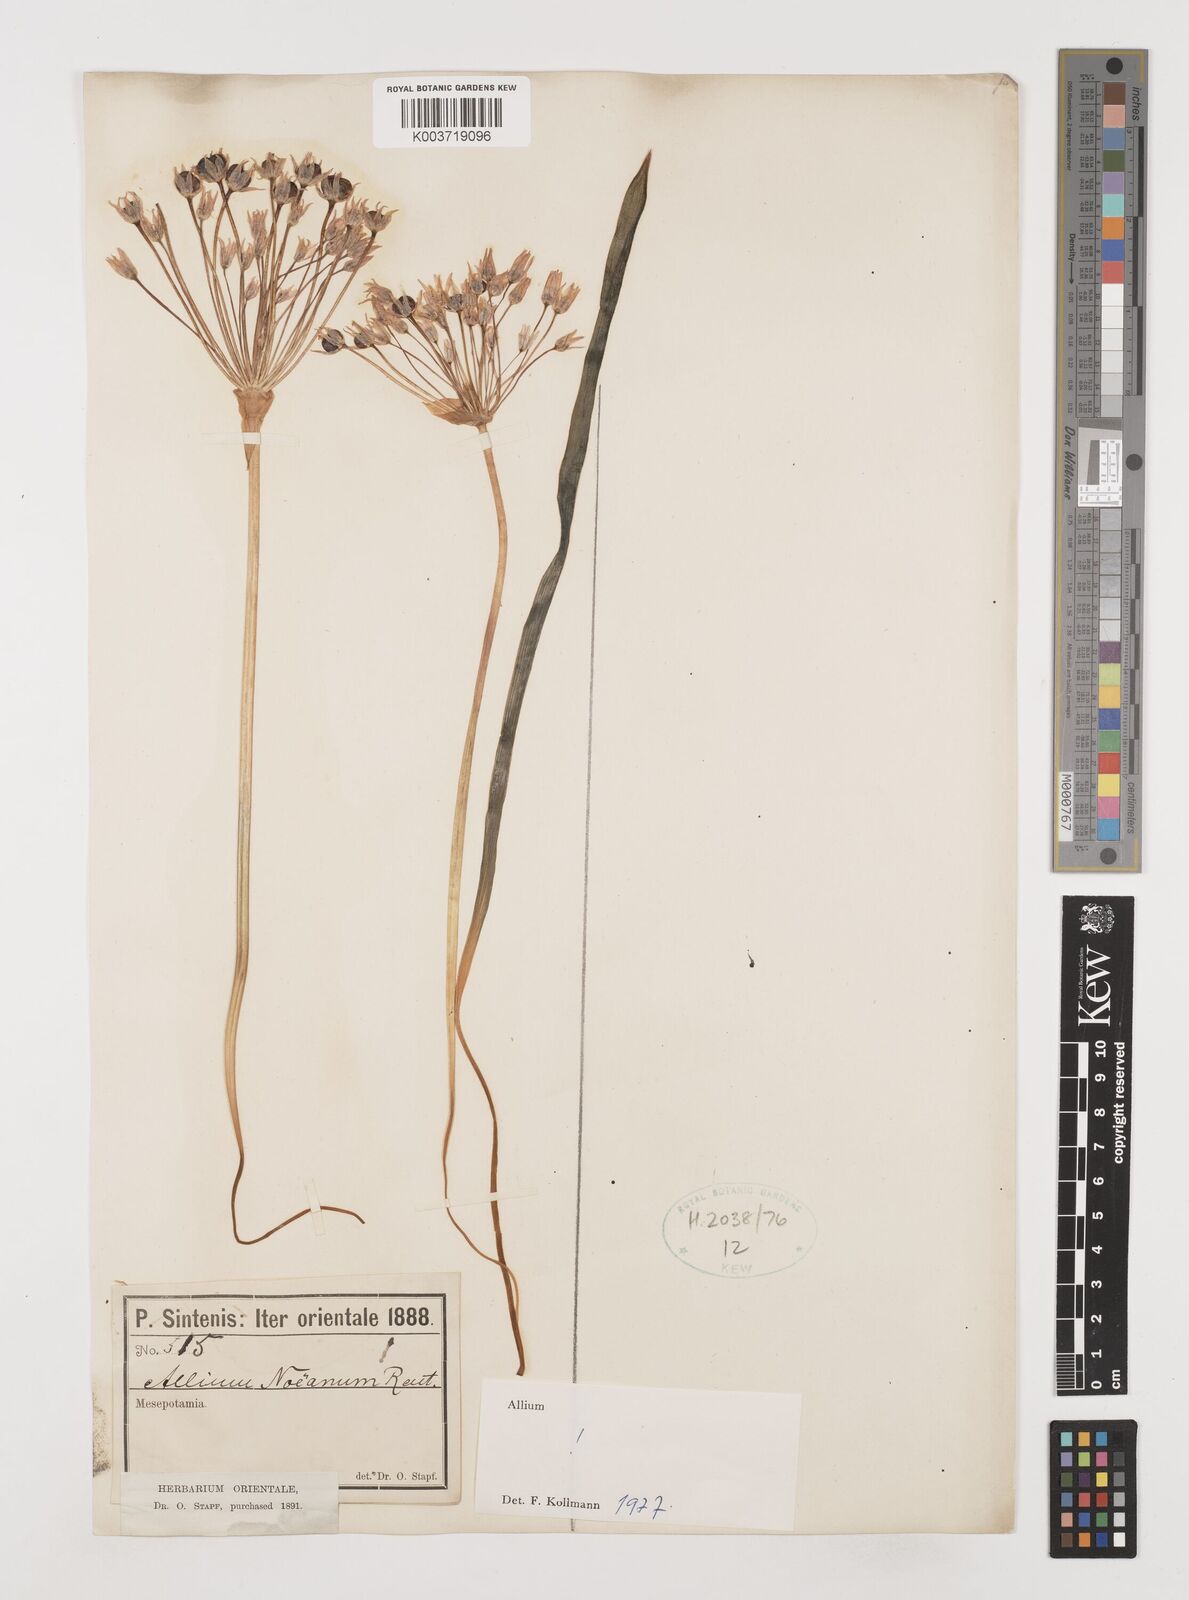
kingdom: Plantae
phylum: Tracheophyta
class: Liliopsida
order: Asparagales
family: Amaryllidaceae
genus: Allium
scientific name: Allium noeanum
